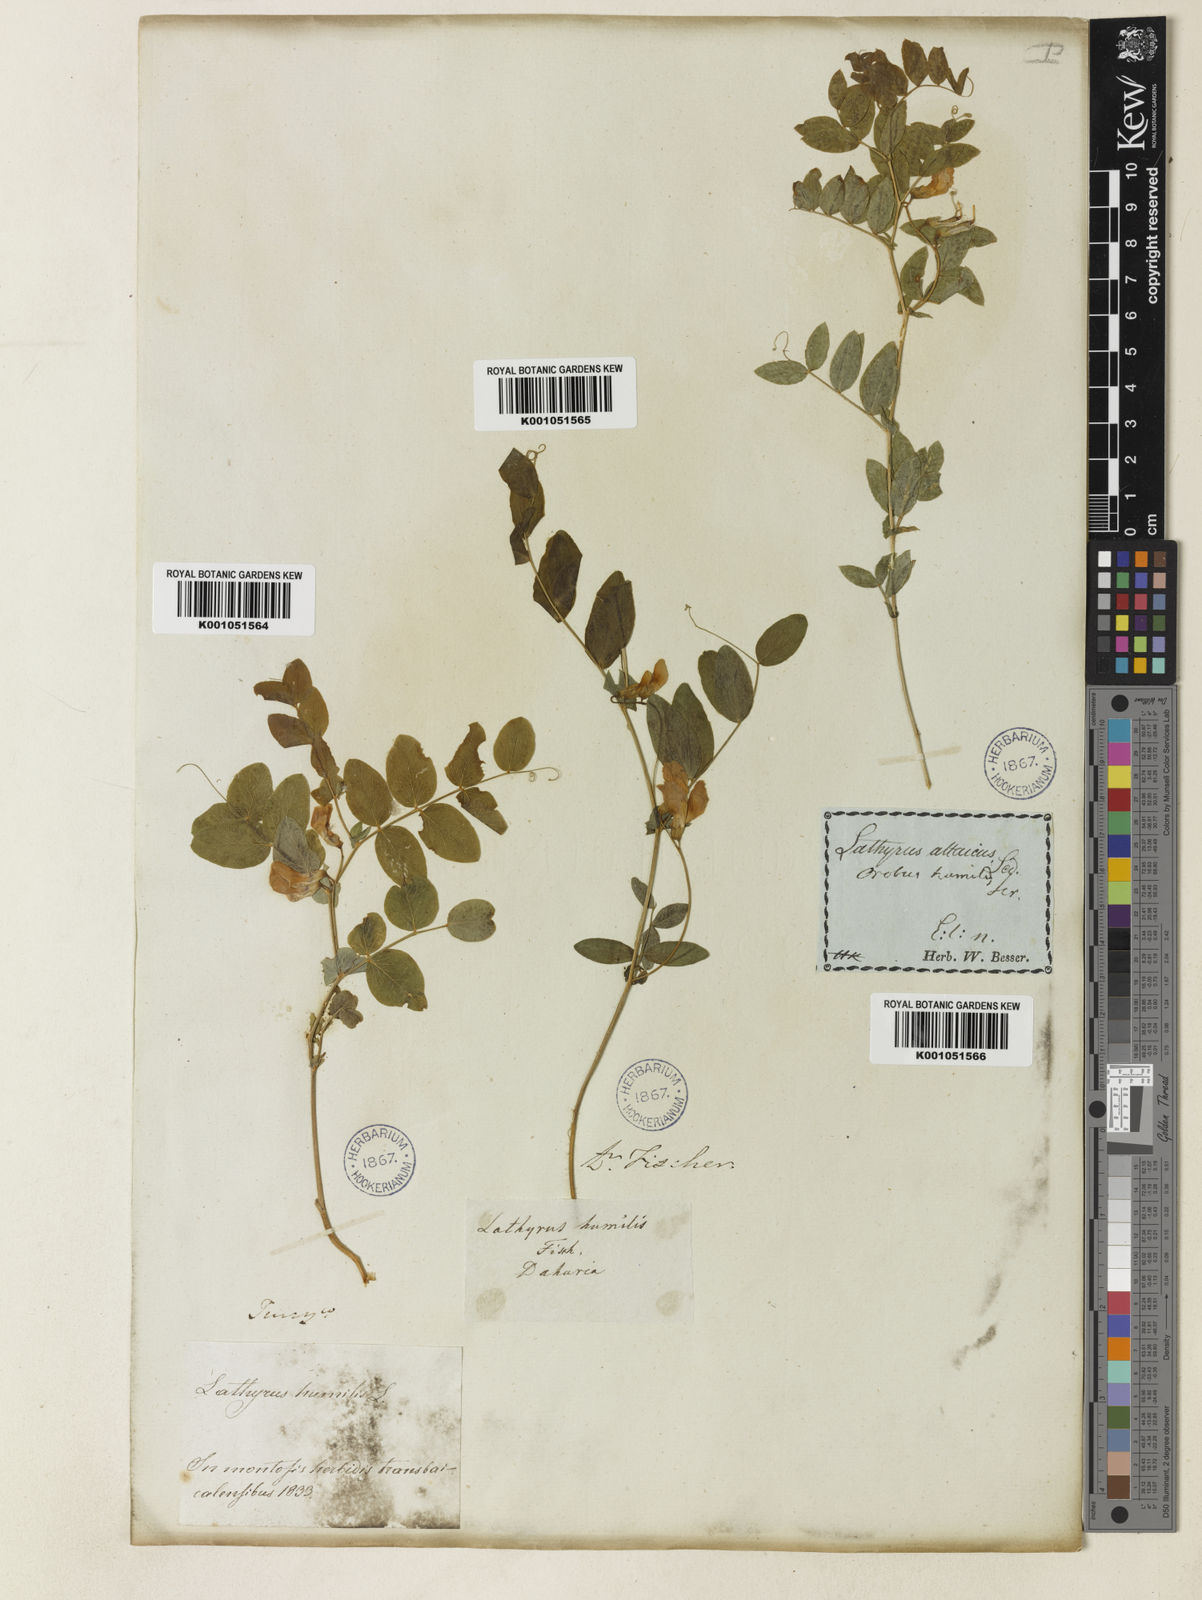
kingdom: Plantae
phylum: Tracheophyta
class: Magnoliopsida
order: Fabales
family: Fabaceae
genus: Lathyrus
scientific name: Lathyrus humilis
